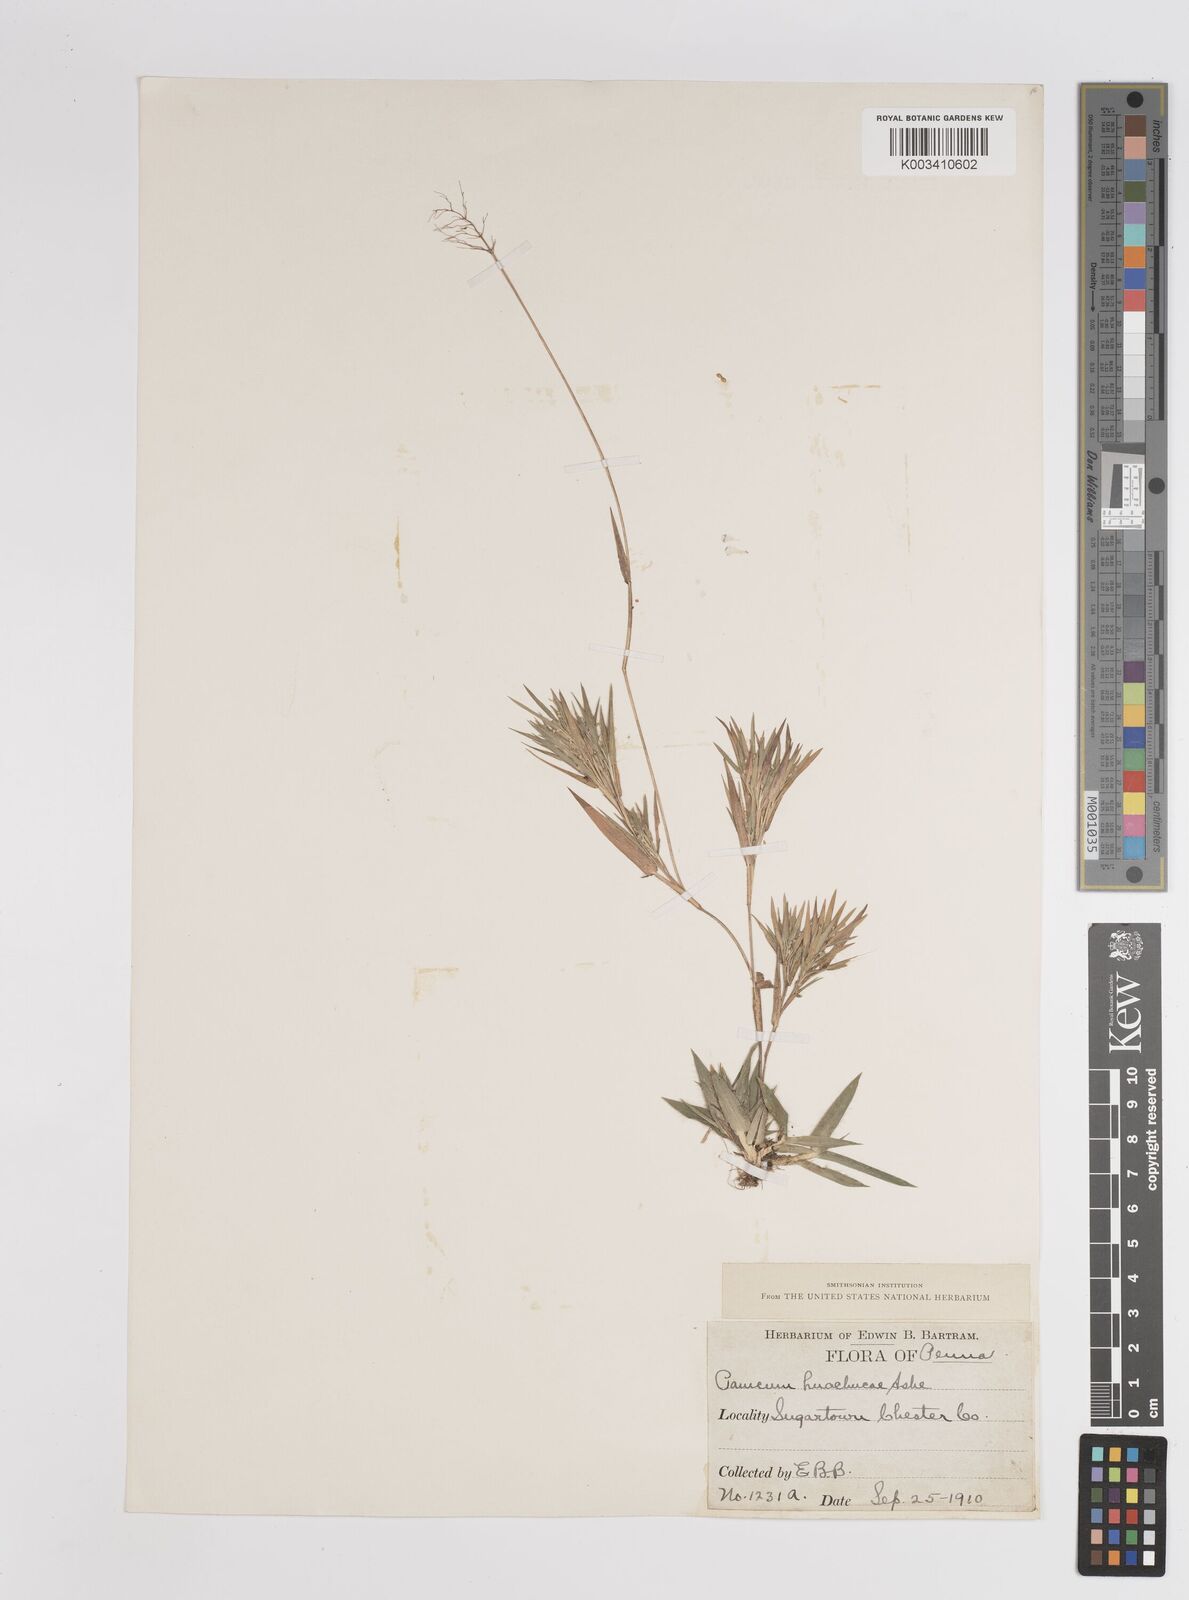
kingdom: Plantae
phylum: Tracheophyta
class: Liliopsida
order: Poales
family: Poaceae
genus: Dichanthelium
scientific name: Dichanthelium lanuginosum
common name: Woolly panicgrass
